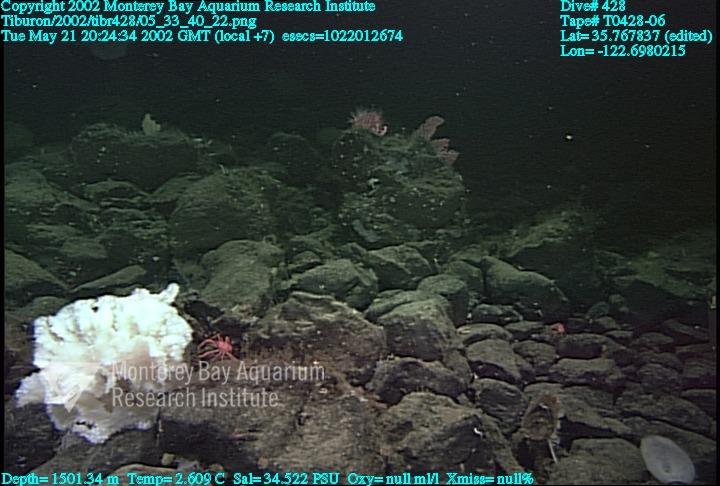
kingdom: Animalia
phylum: Porifera
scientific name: Porifera
